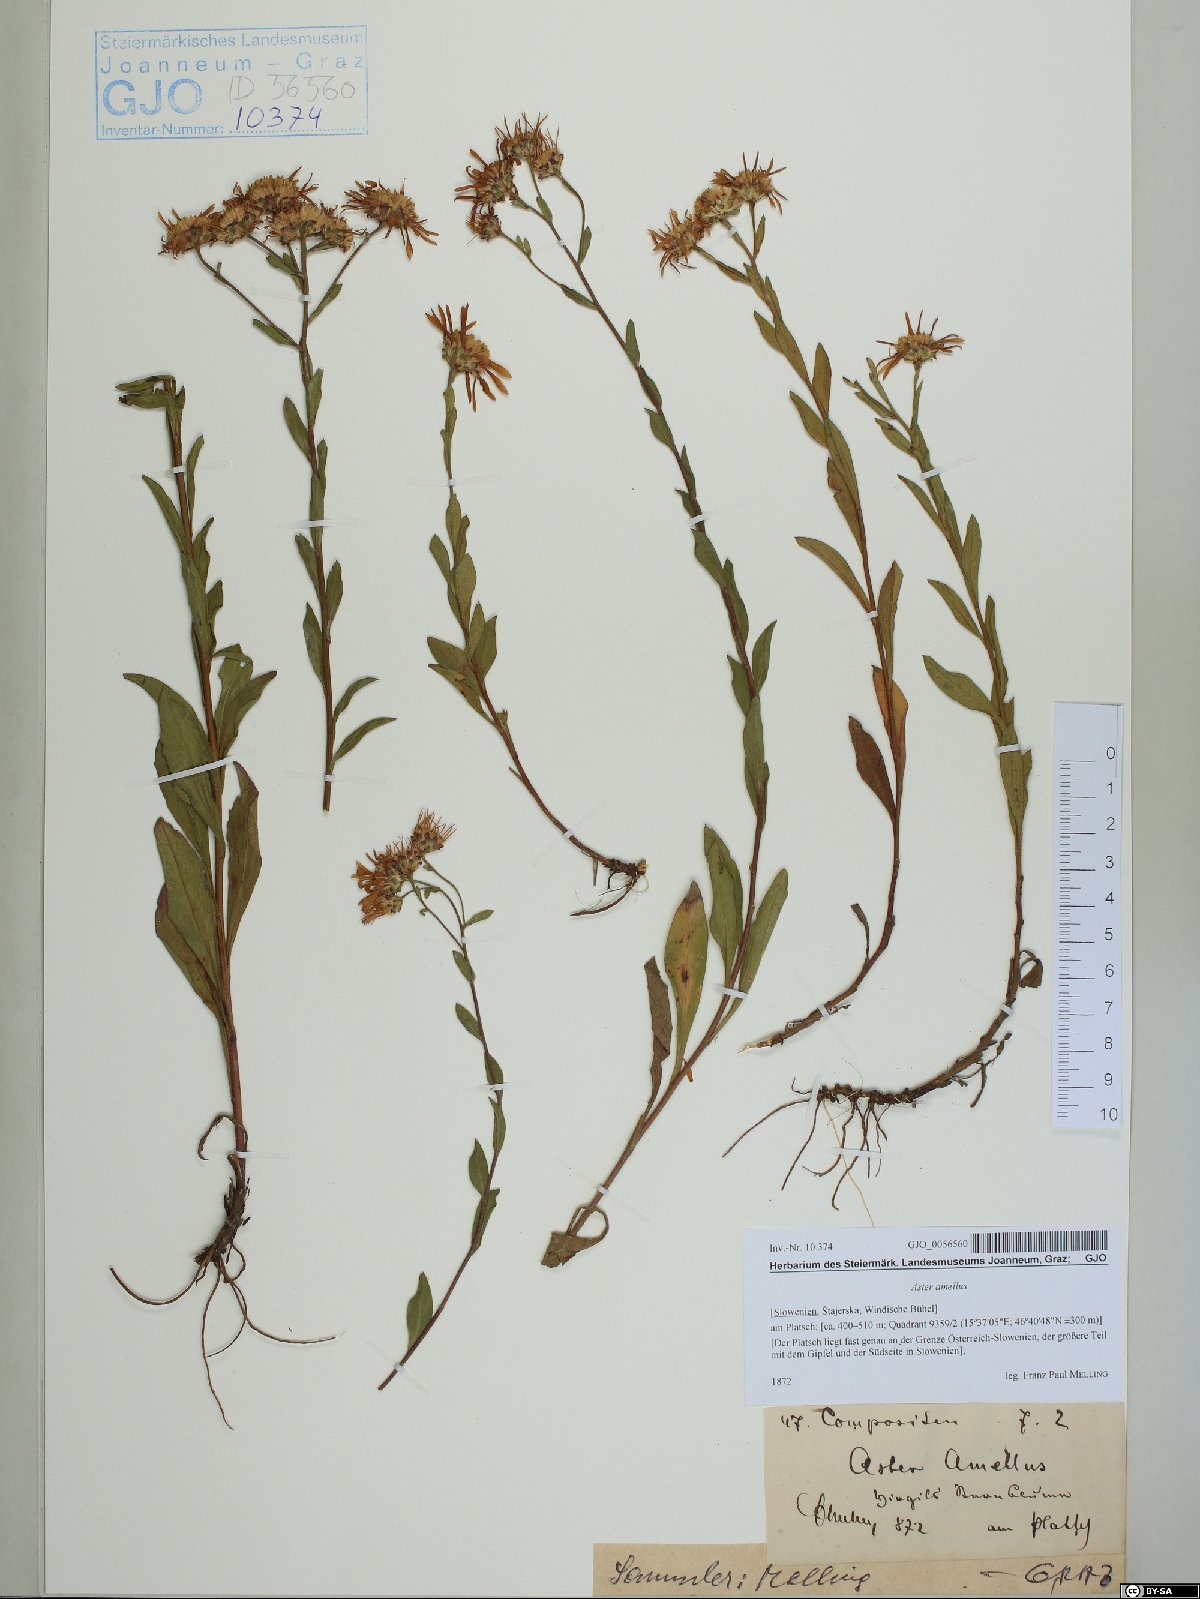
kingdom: Plantae
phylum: Tracheophyta
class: Magnoliopsida
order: Asterales
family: Asteraceae
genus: Aster
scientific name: Aster amellus
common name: European michaelmas daisy
